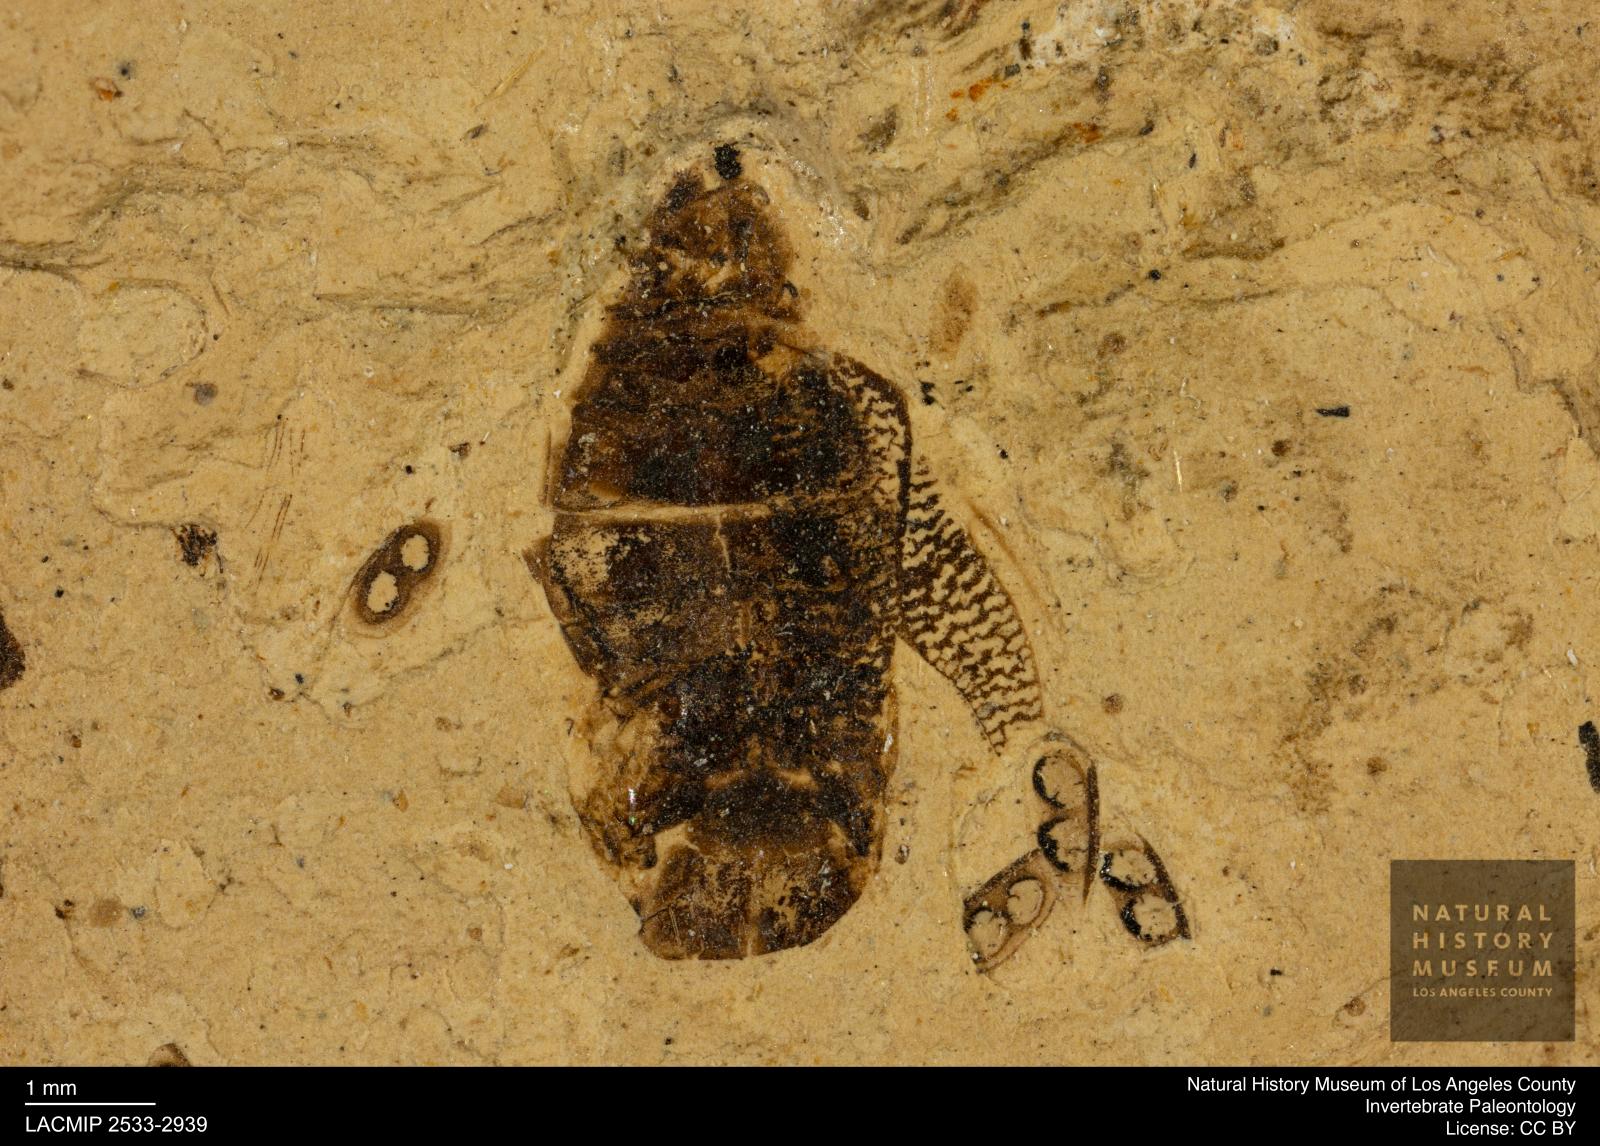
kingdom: Animalia
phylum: Arthropoda
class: Insecta
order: Hemiptera
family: Corixidae
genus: Corixa
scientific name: Corixa
